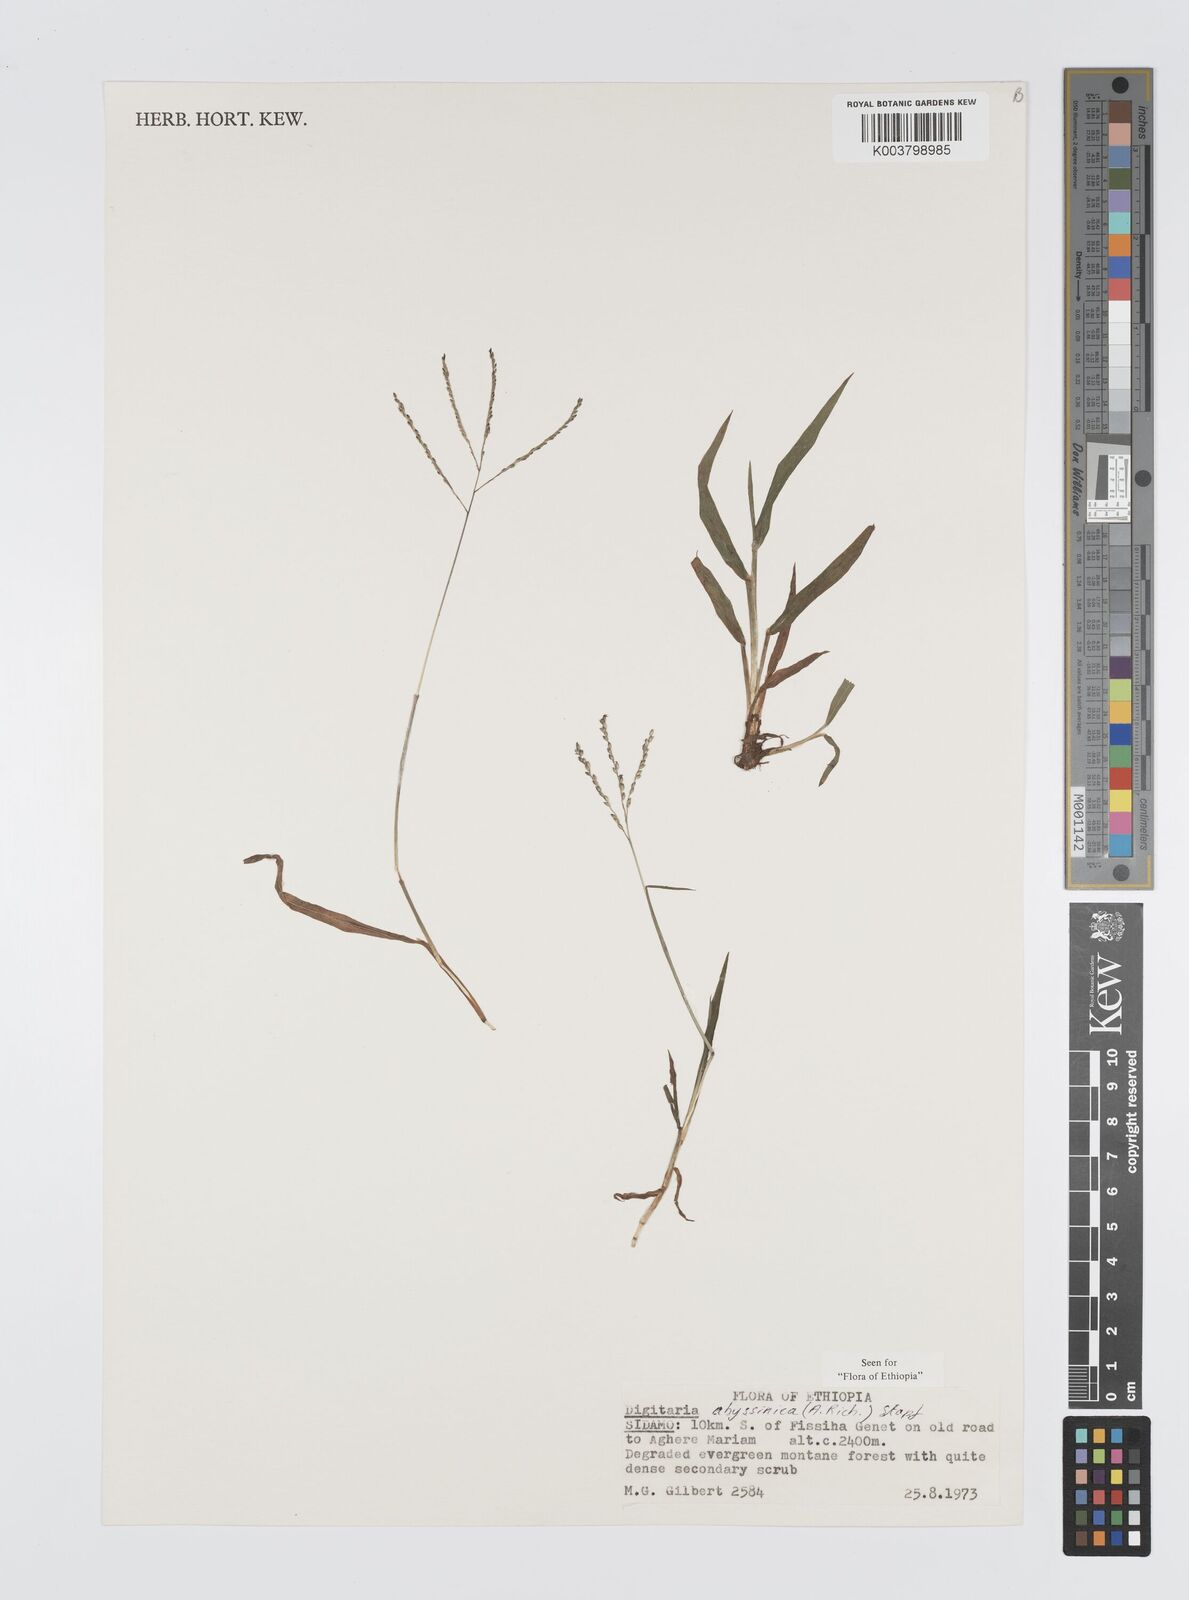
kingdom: Plantae
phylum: Tracheophyta
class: Liliopsida
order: Poales
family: Poaceae
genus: Digitaria
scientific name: Digitaria abyssinica
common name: African couchgrass
